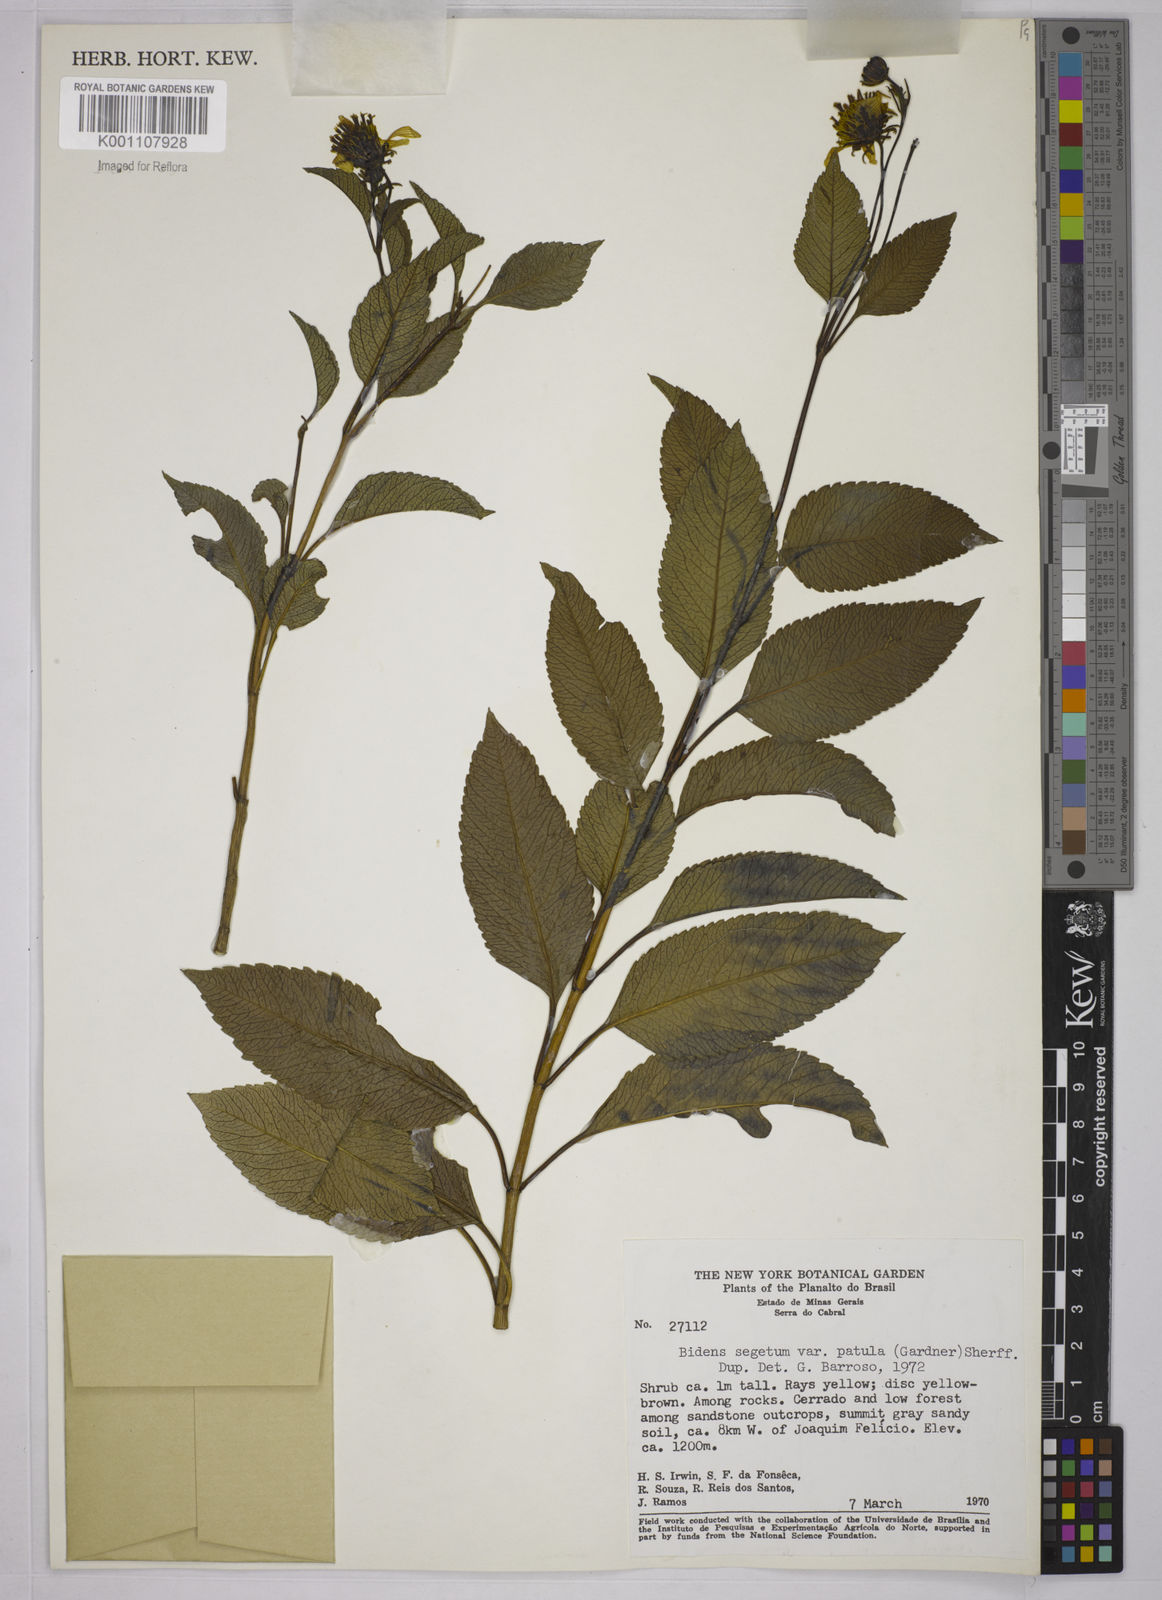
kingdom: Plantae
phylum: Tracheophyta
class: Magnoliopsida
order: Asterales
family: Asteraceae
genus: Bidens
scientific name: Bidens segetum
